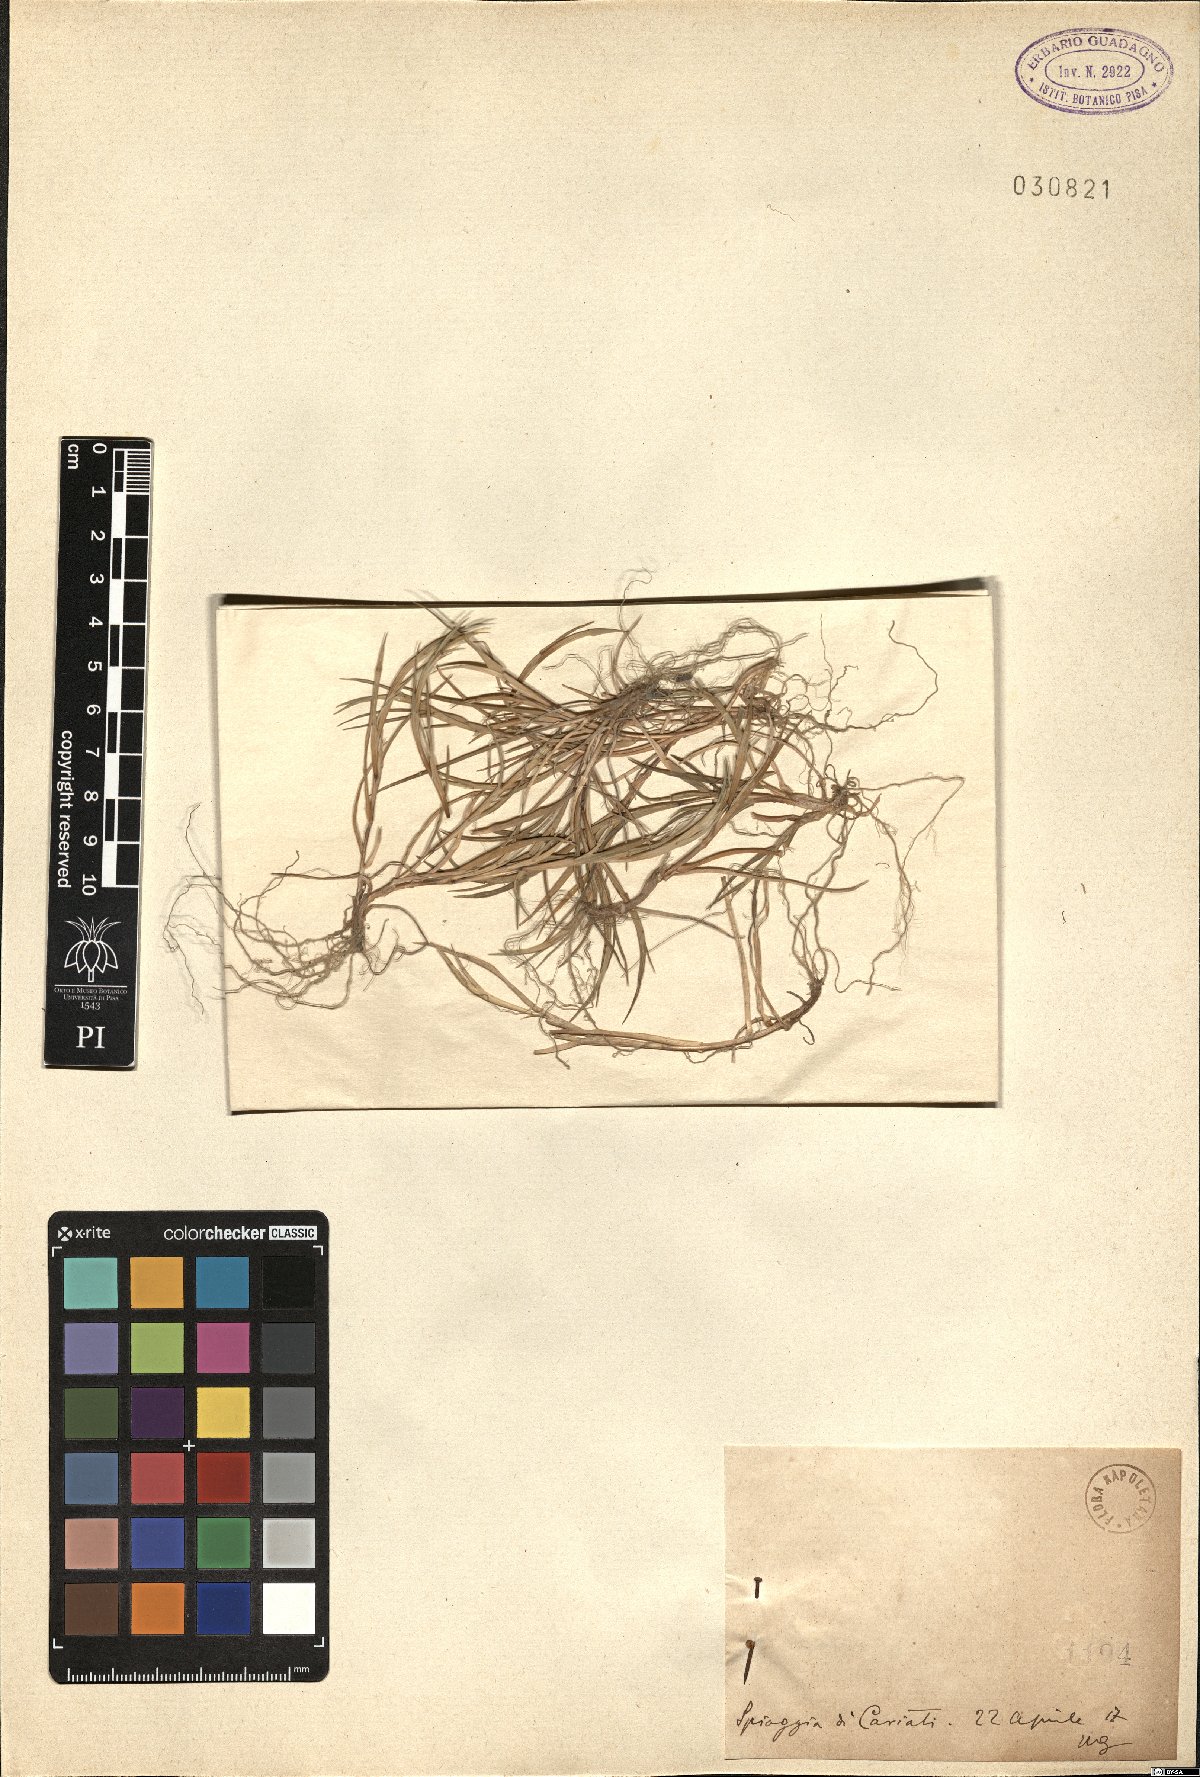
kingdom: Plantae
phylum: Tracheophyta
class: Liliopsida
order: Poales
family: Poaceae
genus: Lepturus
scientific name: Lepturus
